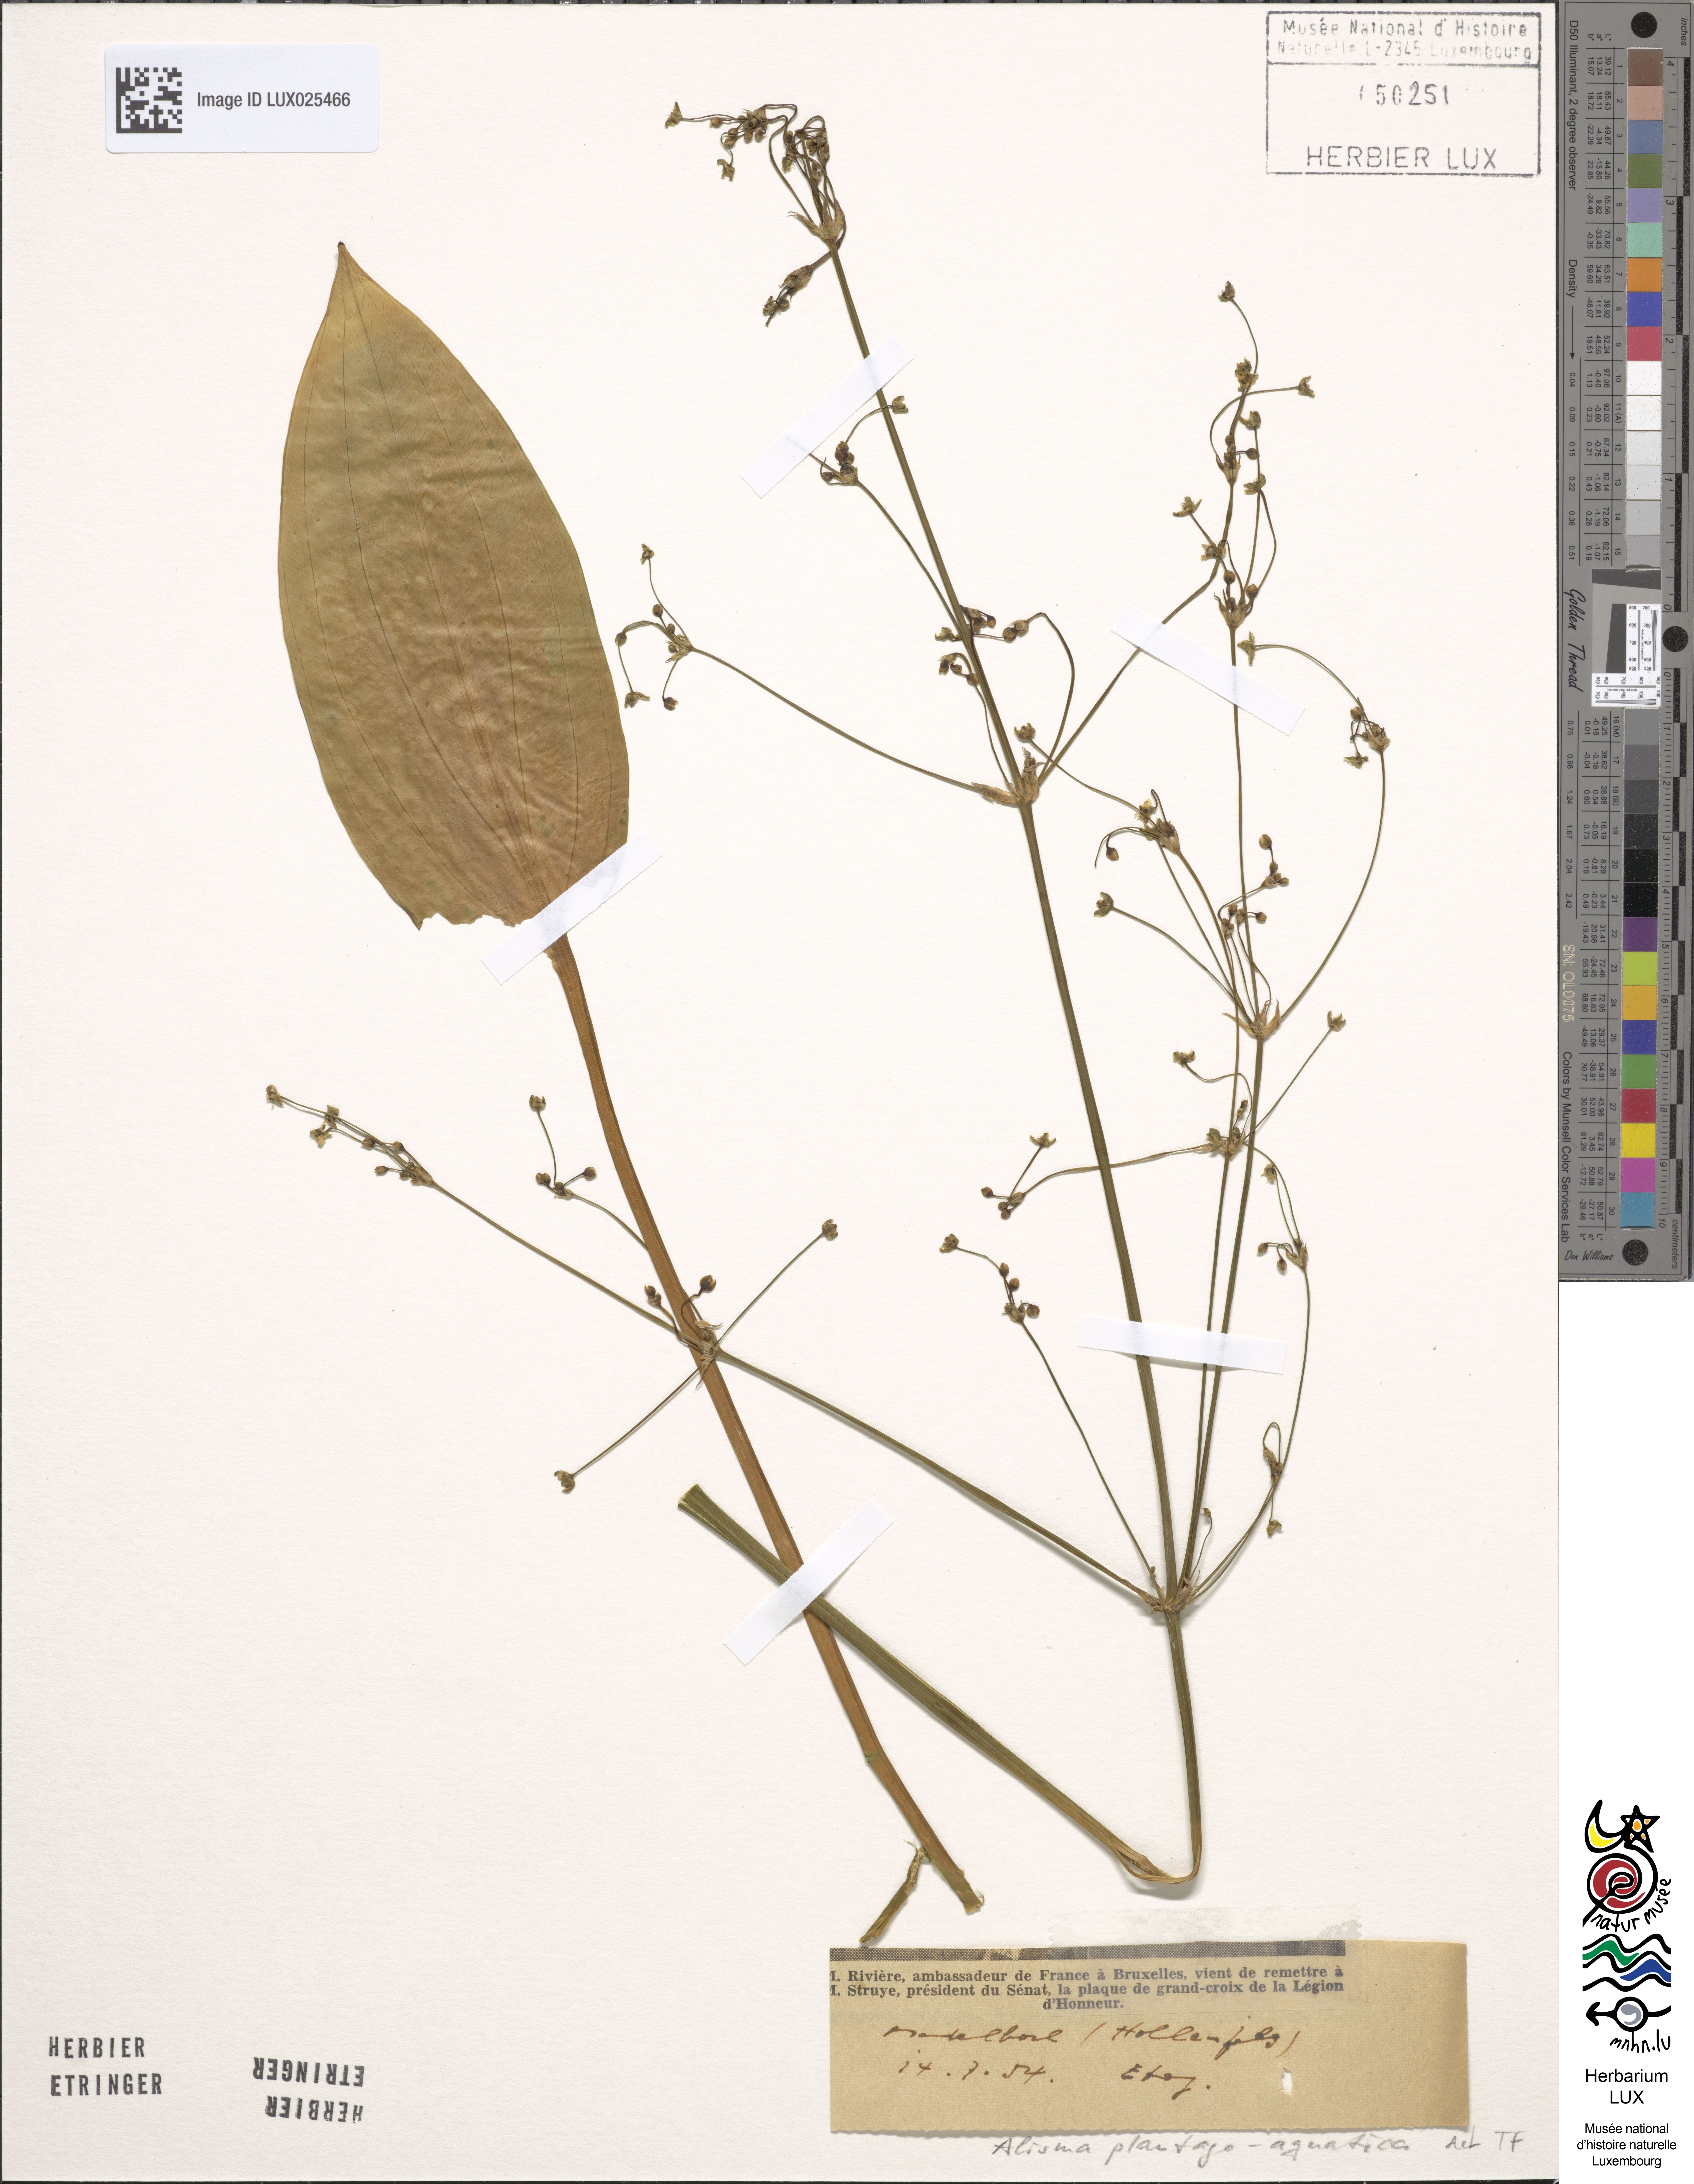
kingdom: Plantae
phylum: Tracheophyta
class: Liliopsida
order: Alismatales
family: Alismataceae
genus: Alisma
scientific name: Alisma plantago-aquatica
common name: Water-plantain
